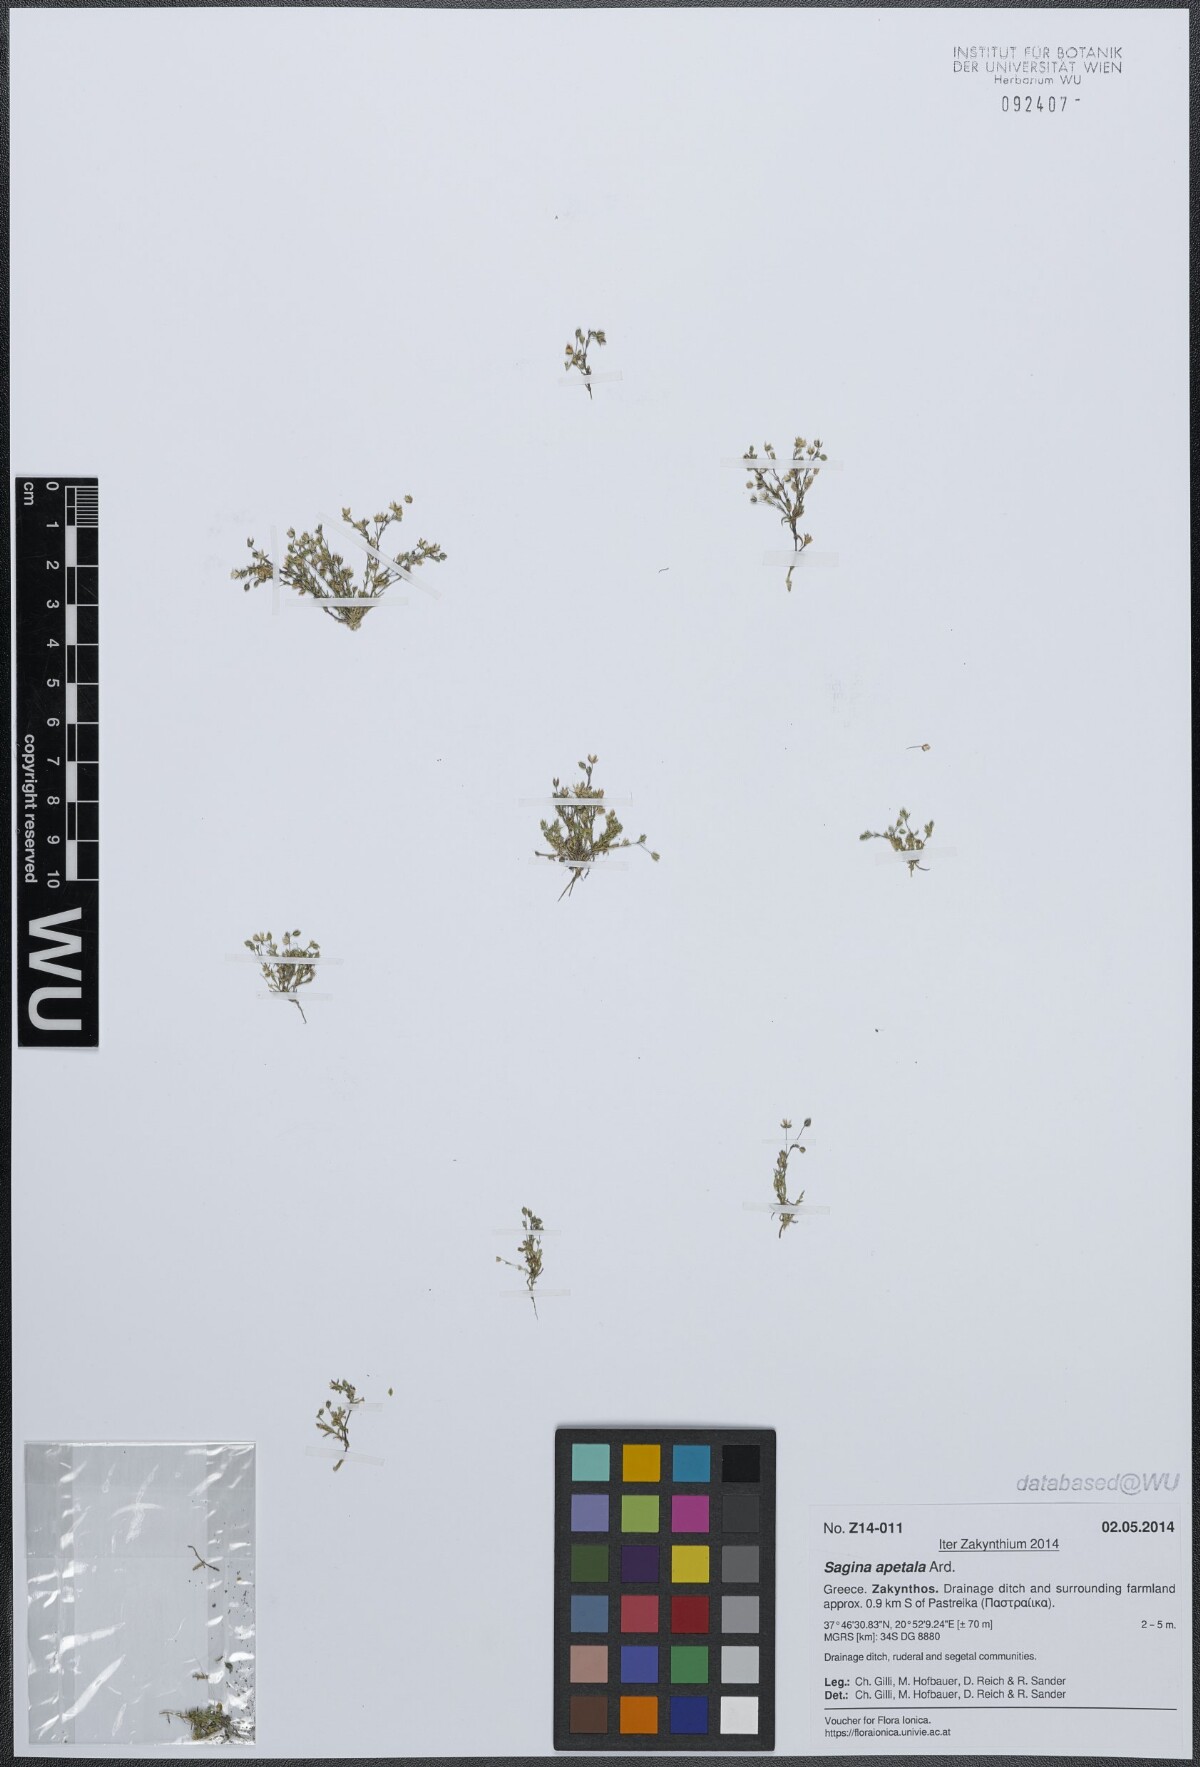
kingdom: Plantae
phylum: Tracheophyta
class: Magnoliopsida
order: Caryophyllales
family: Caryophyllaceae
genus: Sagina
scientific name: Sagina apetala
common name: Annual pearlwort
